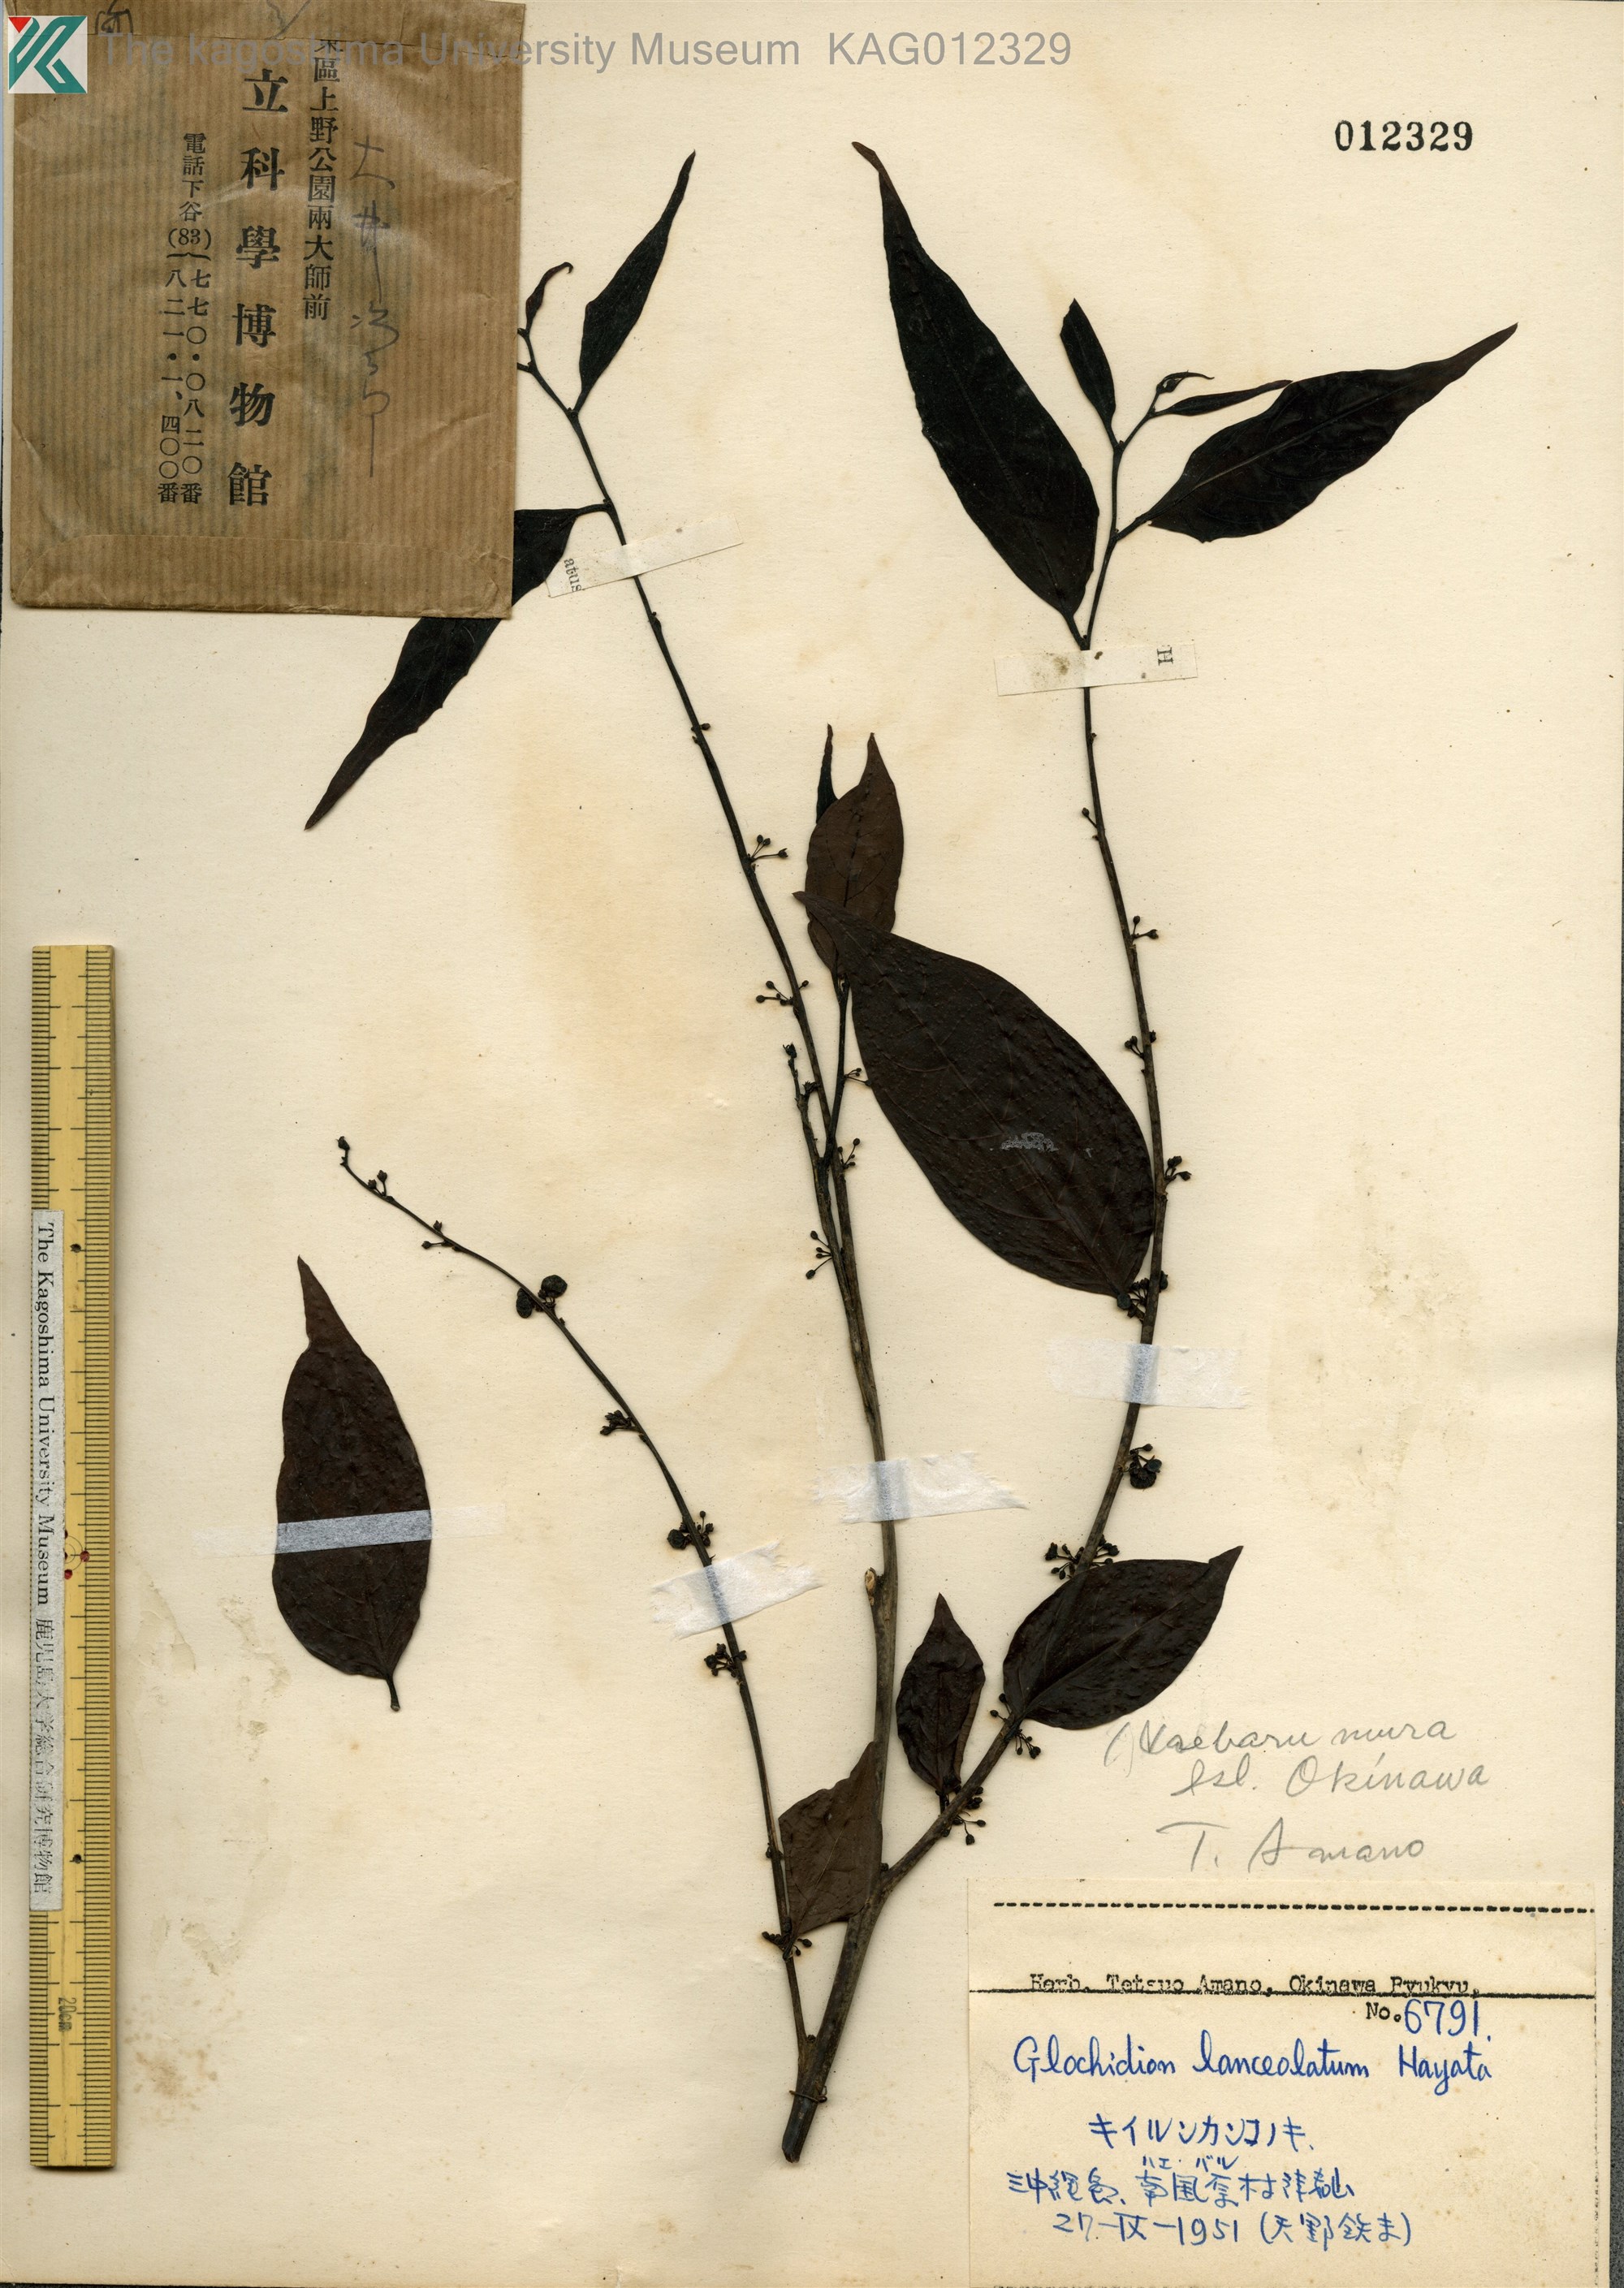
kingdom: Plantae
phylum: Tracheophyta
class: Magnoliopsida
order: Malpighiales
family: Phyllanthaceae
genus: Glochidion
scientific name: Glochidion lanceolatum
